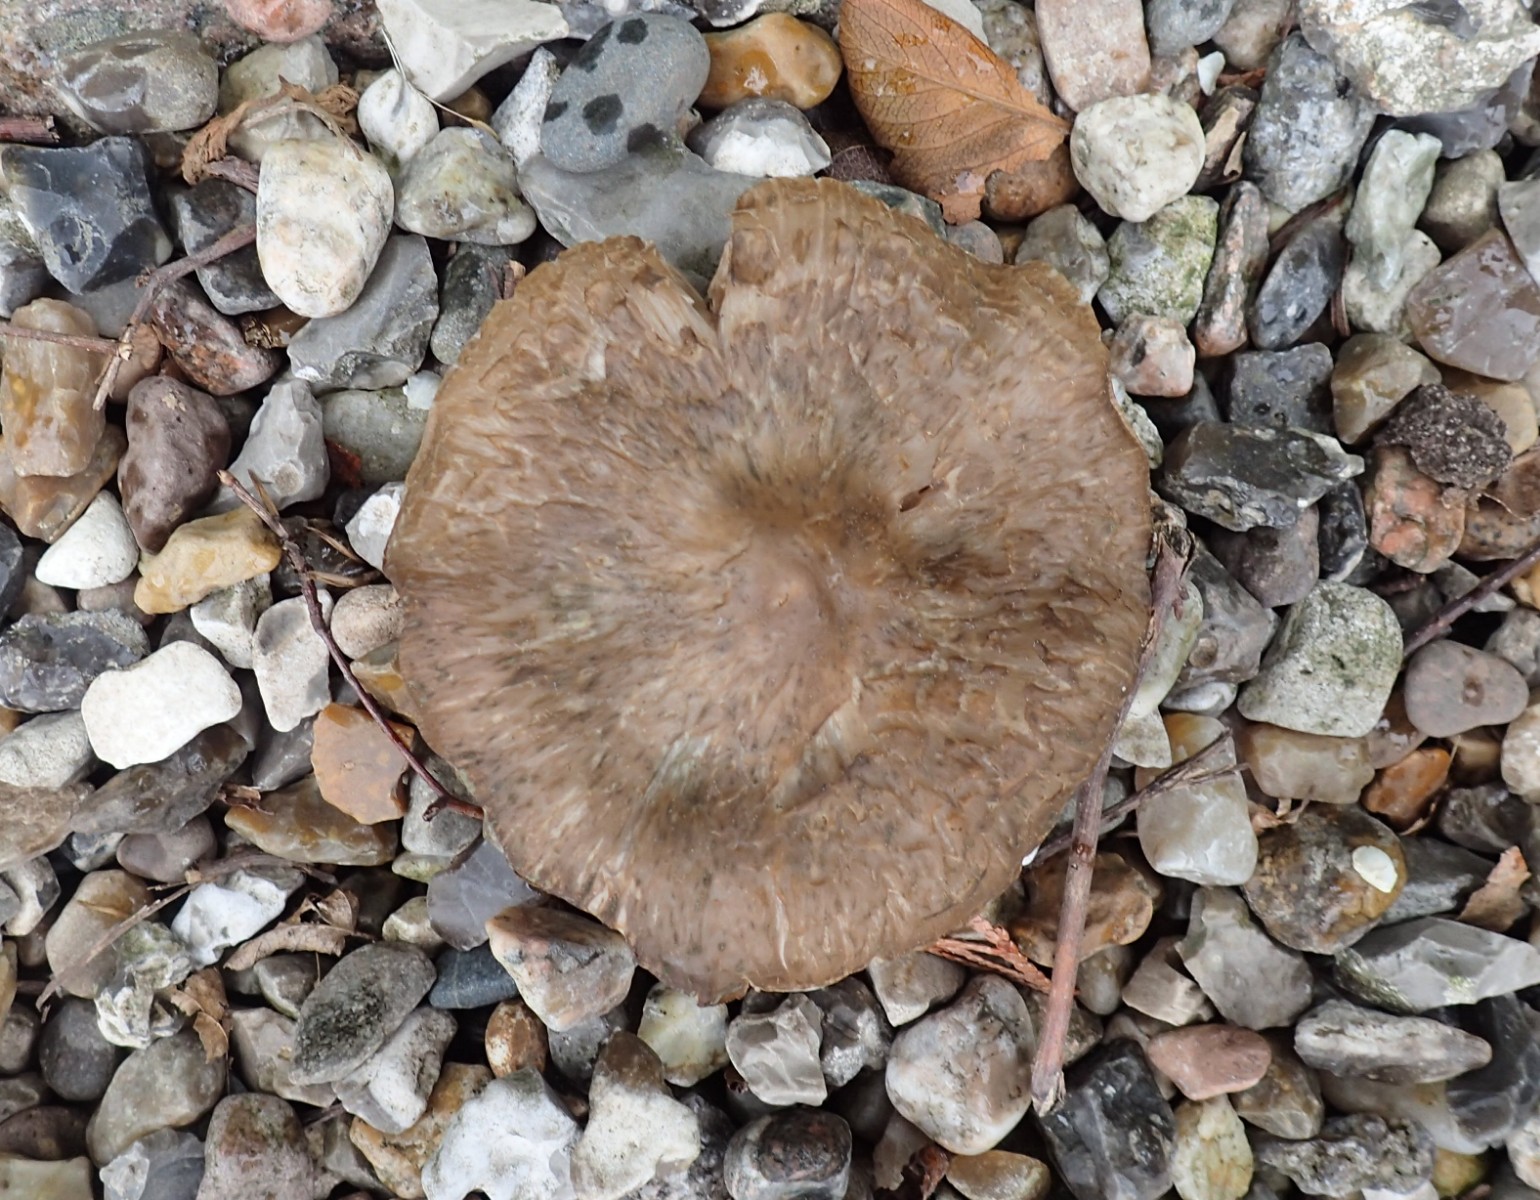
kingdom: Fungi
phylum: Basidiomycota
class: Agaricomycetes
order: Agaricales
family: Entolomataceae
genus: Entoloma
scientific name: Entoloma clypeatum
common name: flammet rødblad
